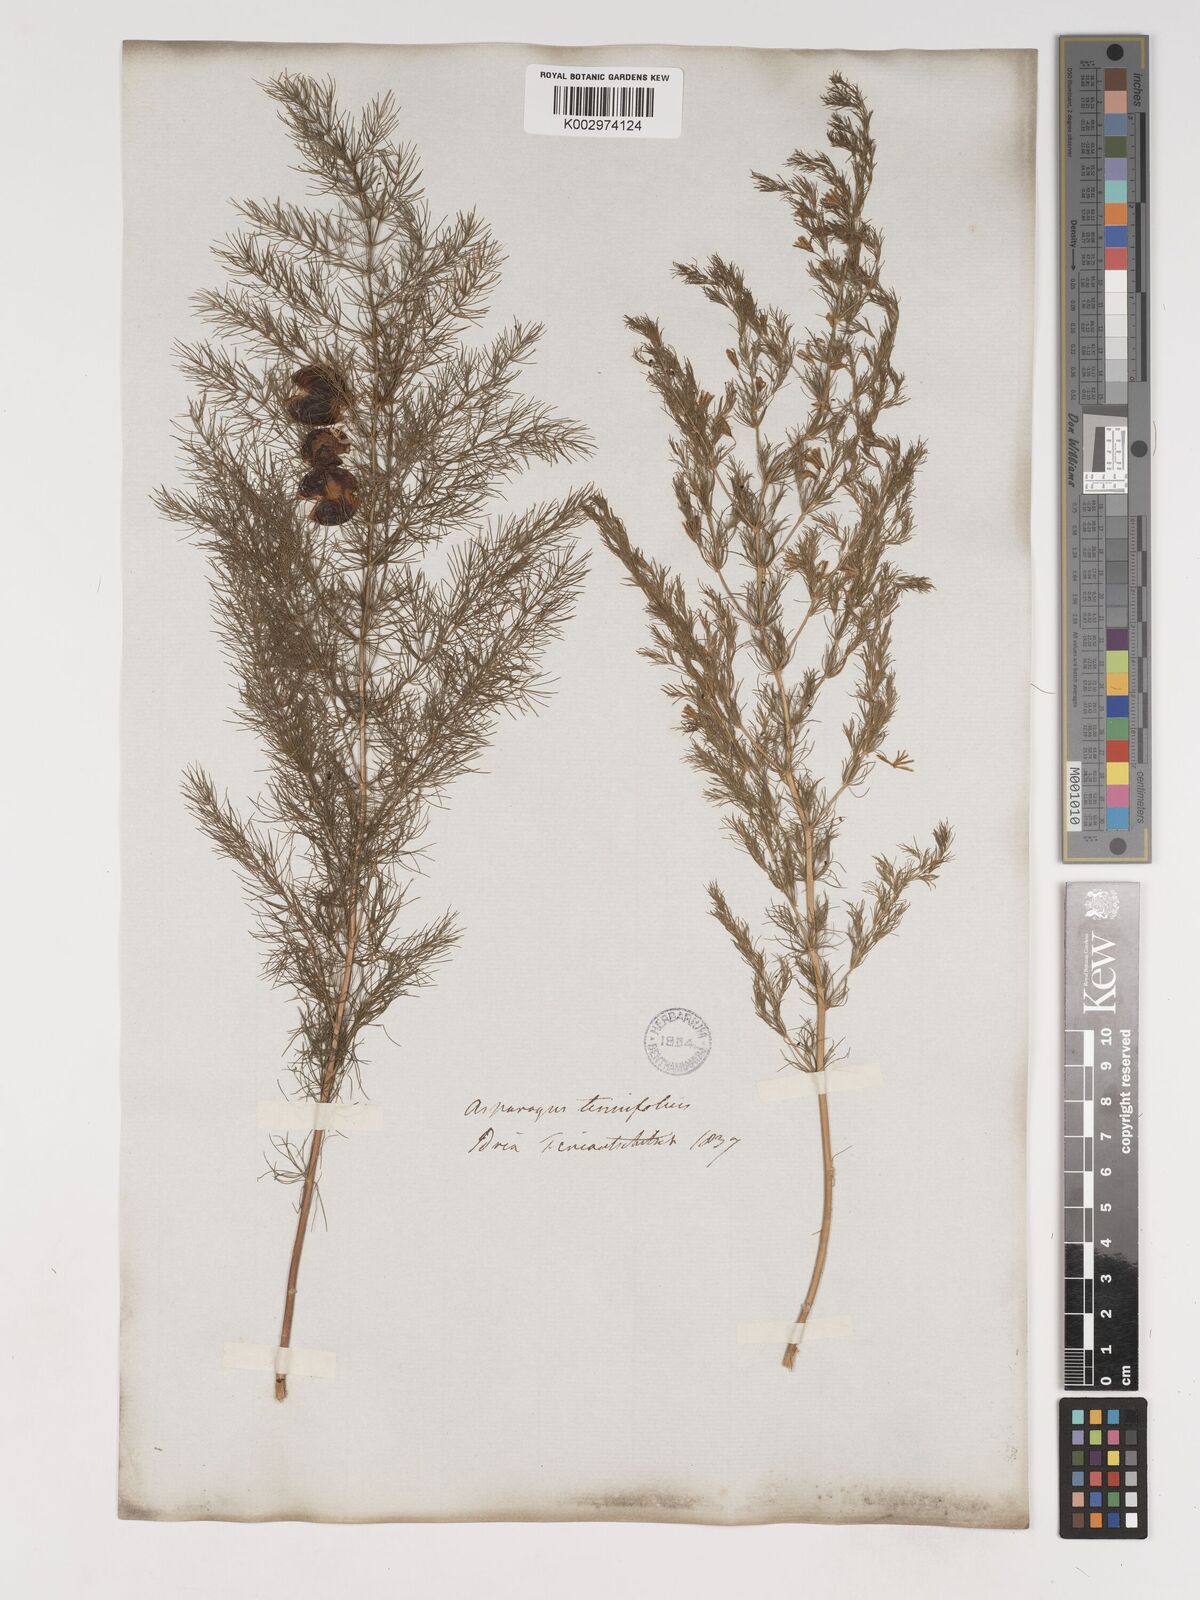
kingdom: Plantae
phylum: Tracheophyta
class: Liliopsida
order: Asparagales
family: Asparagaceae
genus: Asparagus
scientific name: Asparagus tenuifolius
